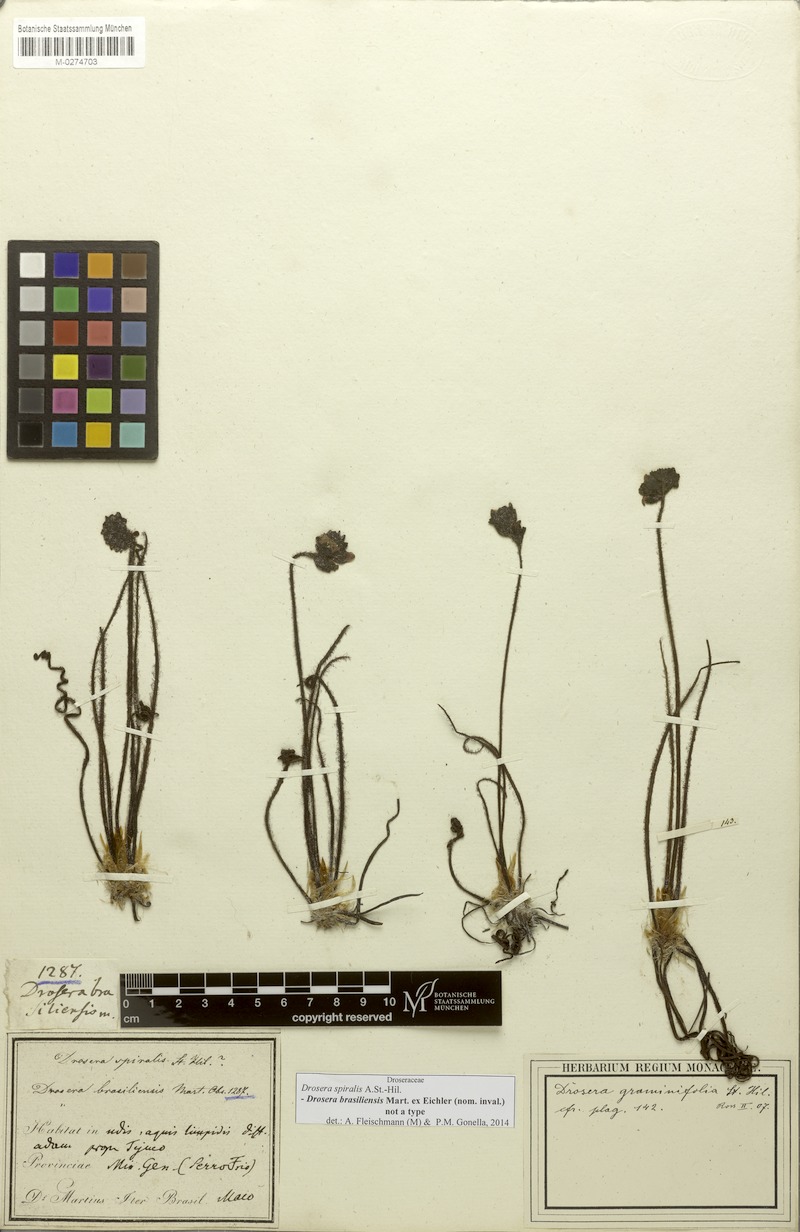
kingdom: Plantae
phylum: Tracheophyta
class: Magnoliopsida
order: Caryophyllales
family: Droseraceae
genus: Drosera
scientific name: Drosera graminifolia
